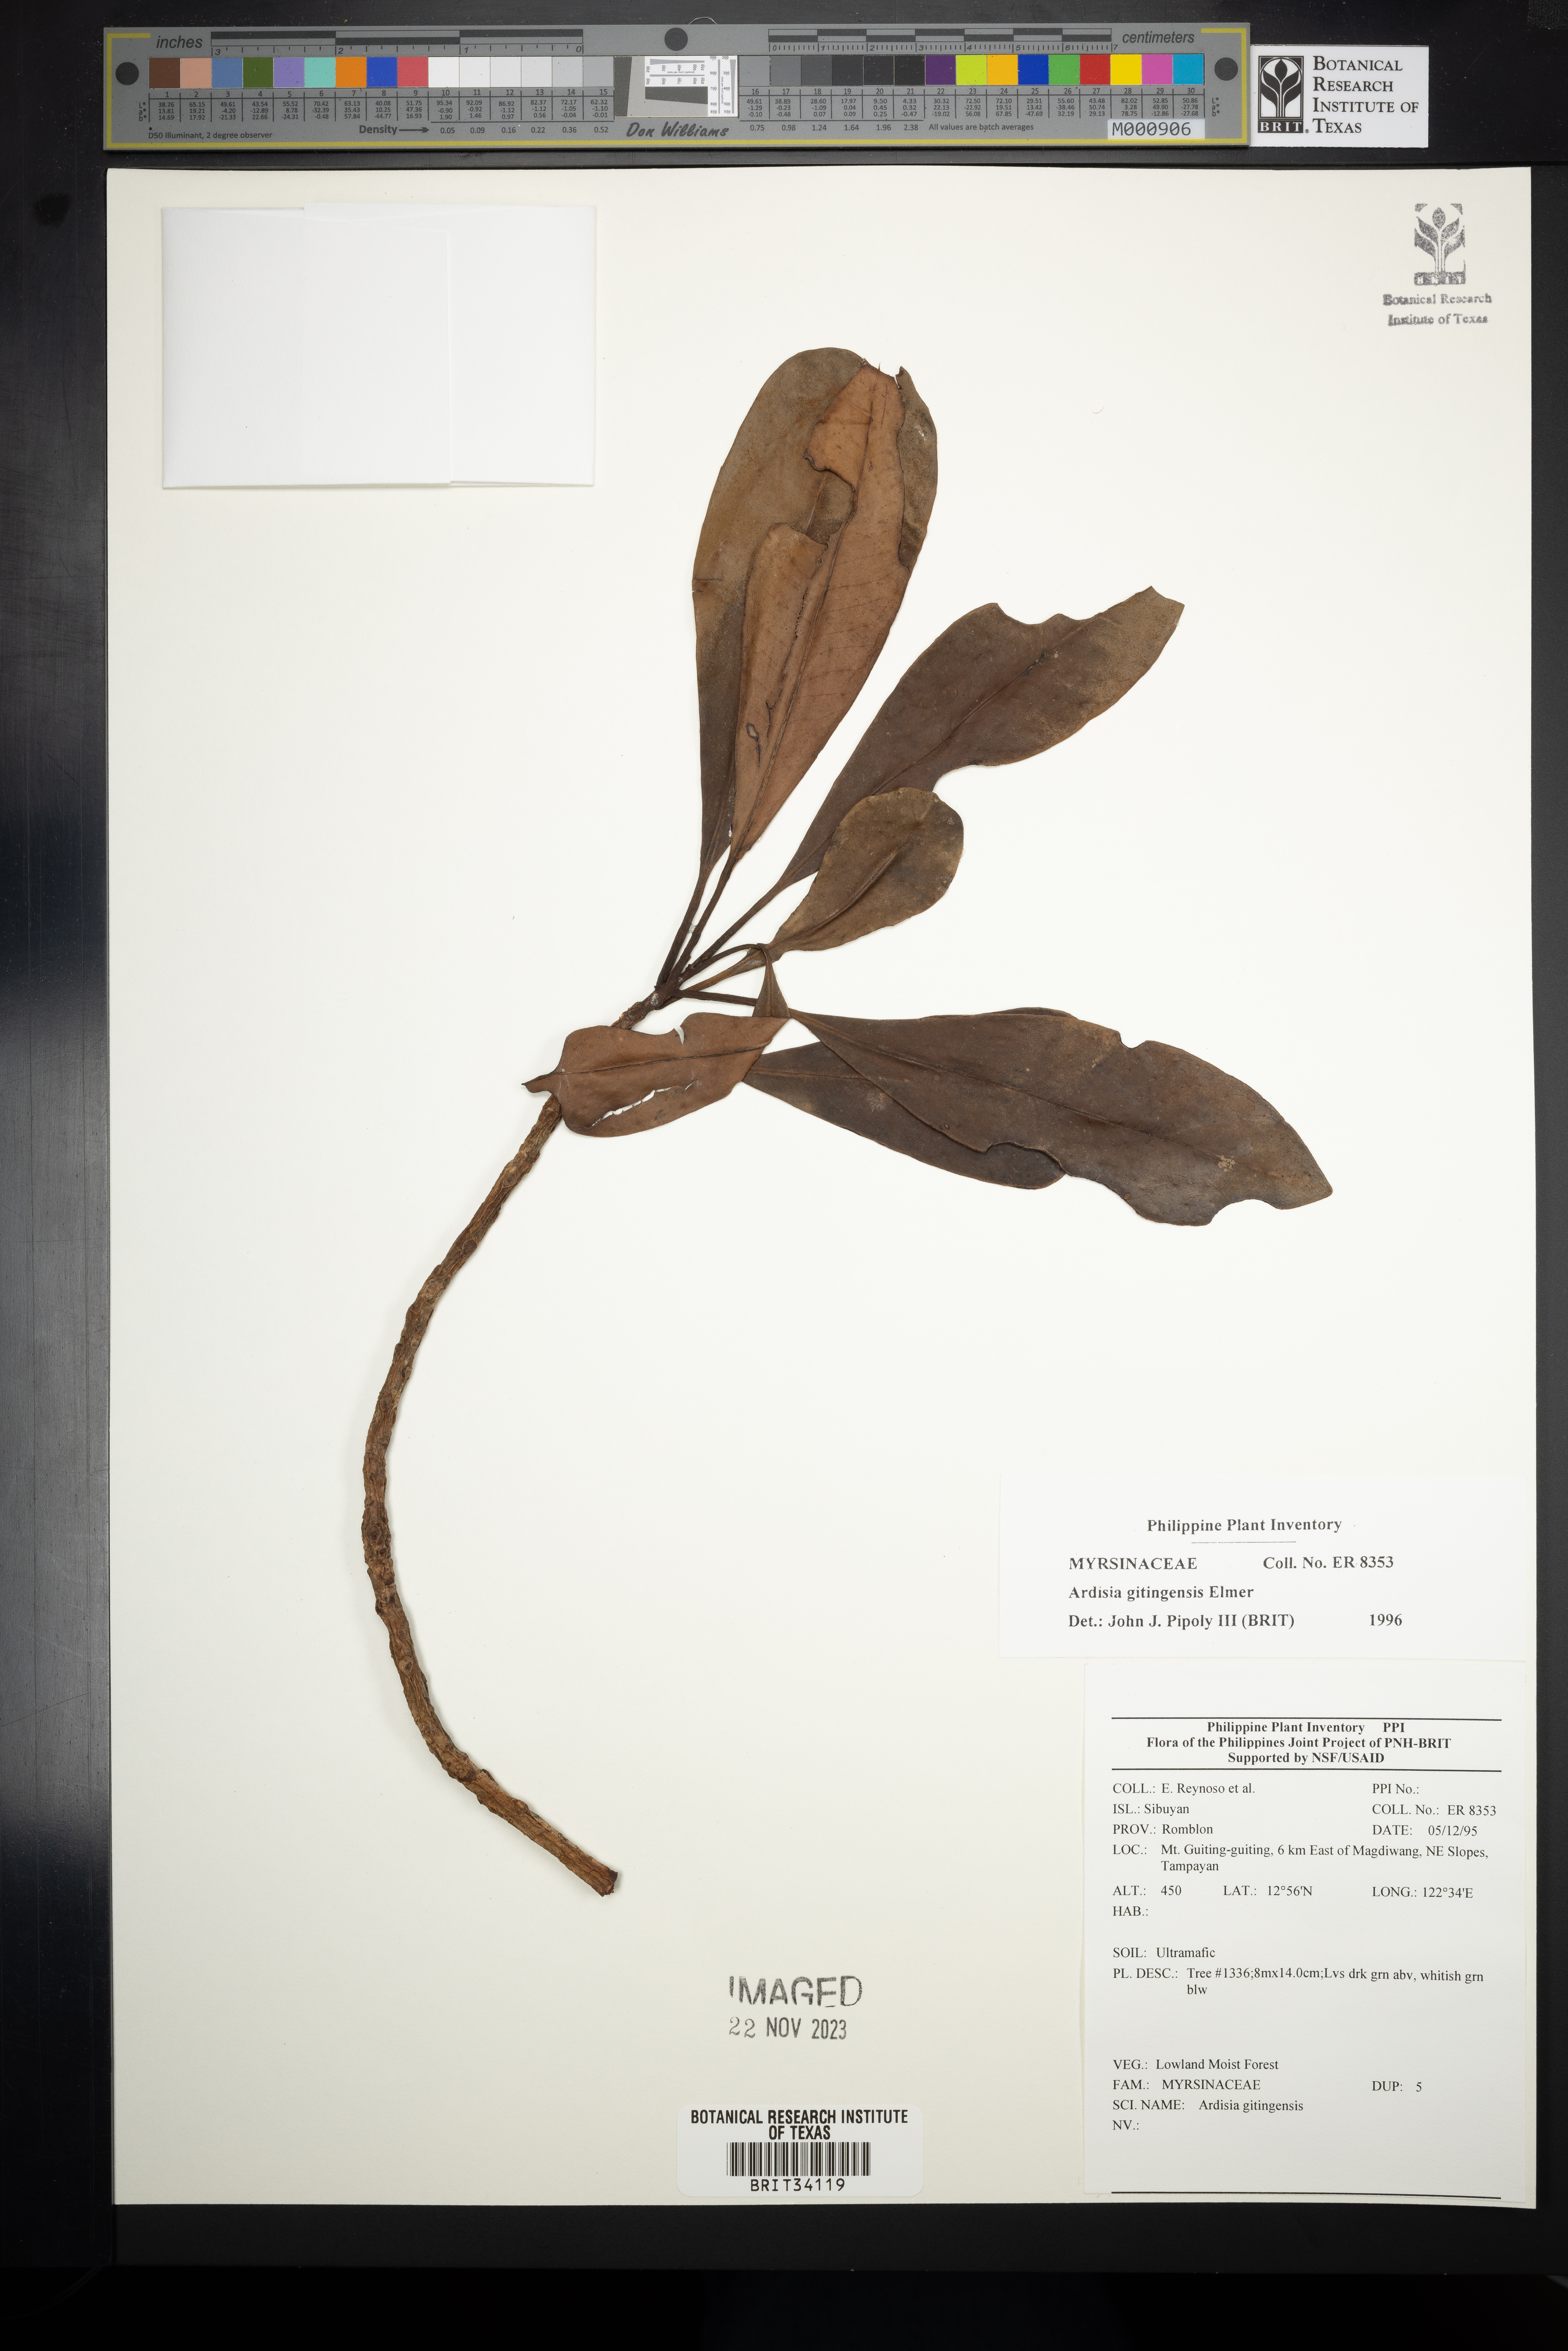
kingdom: Plantae
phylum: Tracheophyta
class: Magnoliopsida
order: Ericales
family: Primulaceae
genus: Ardisia
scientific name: Ardisia darlingii
